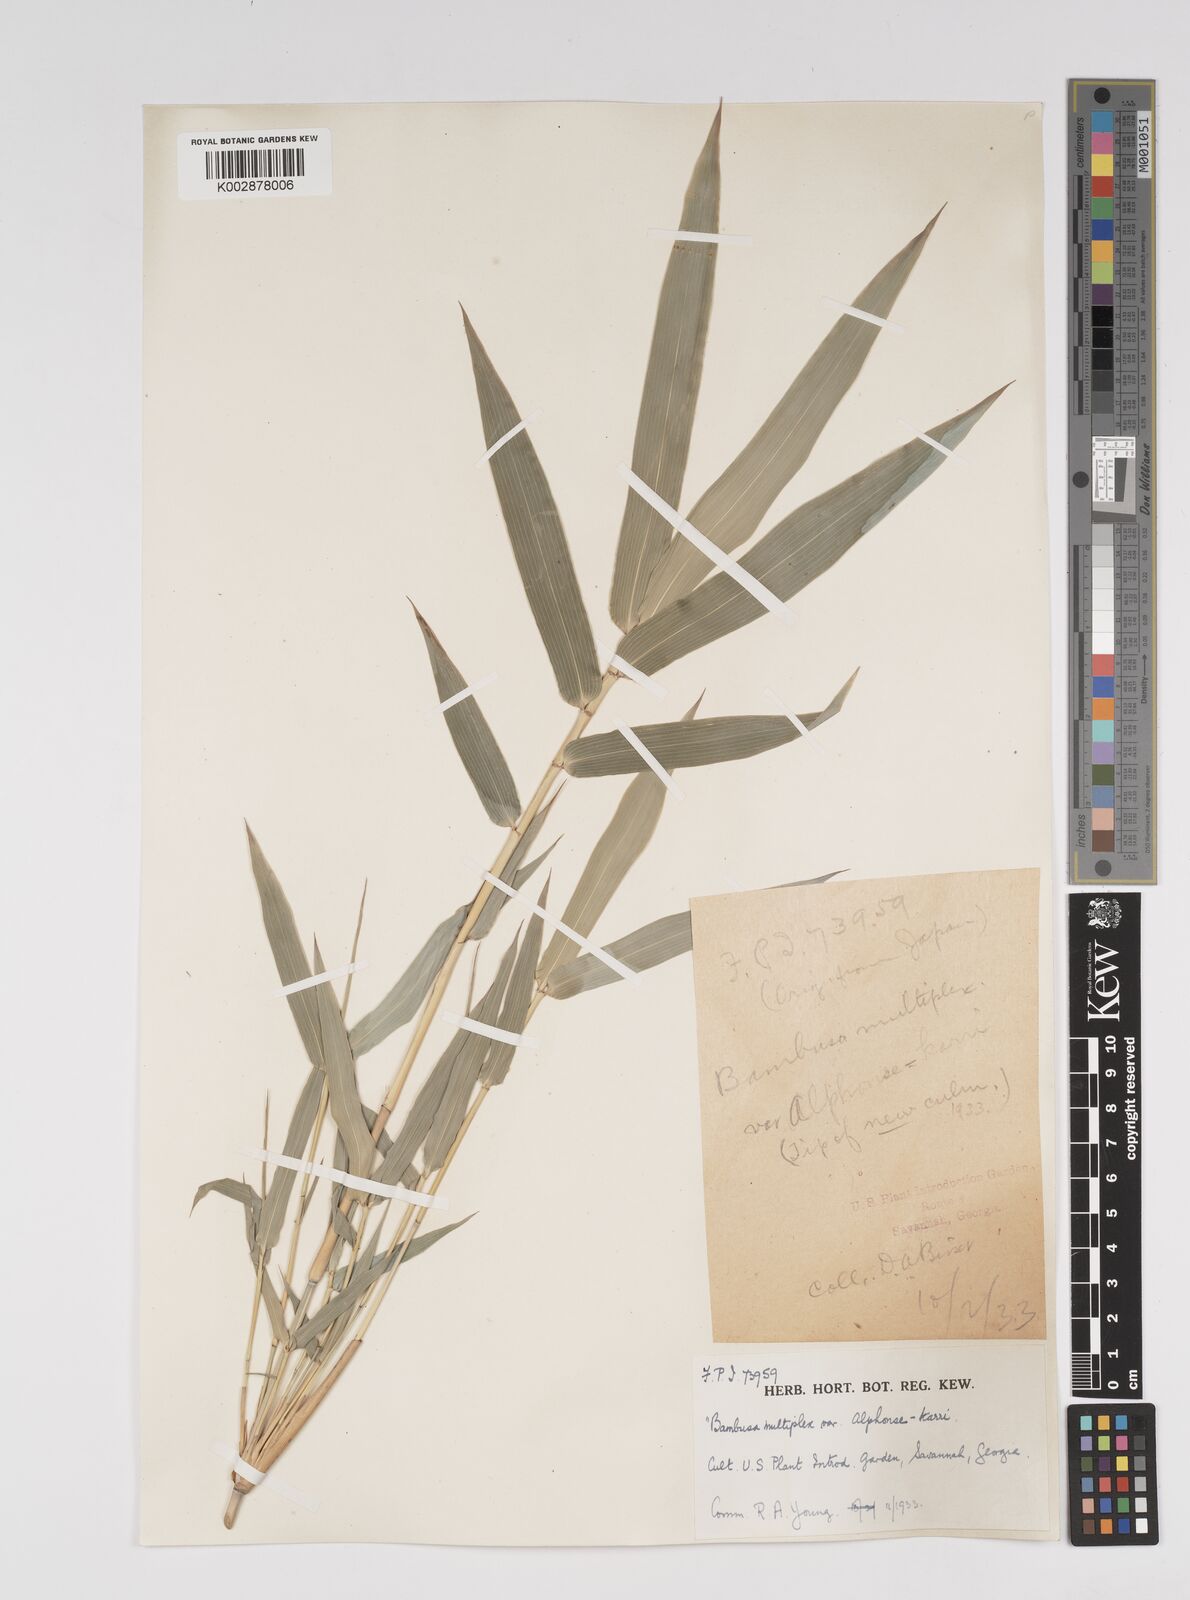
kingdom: Plantae
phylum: Tracheophyta
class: Liliopsida
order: Poales
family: Poaceae
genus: Bambusa
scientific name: Bambusa multiplex
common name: Hedge bamboo
